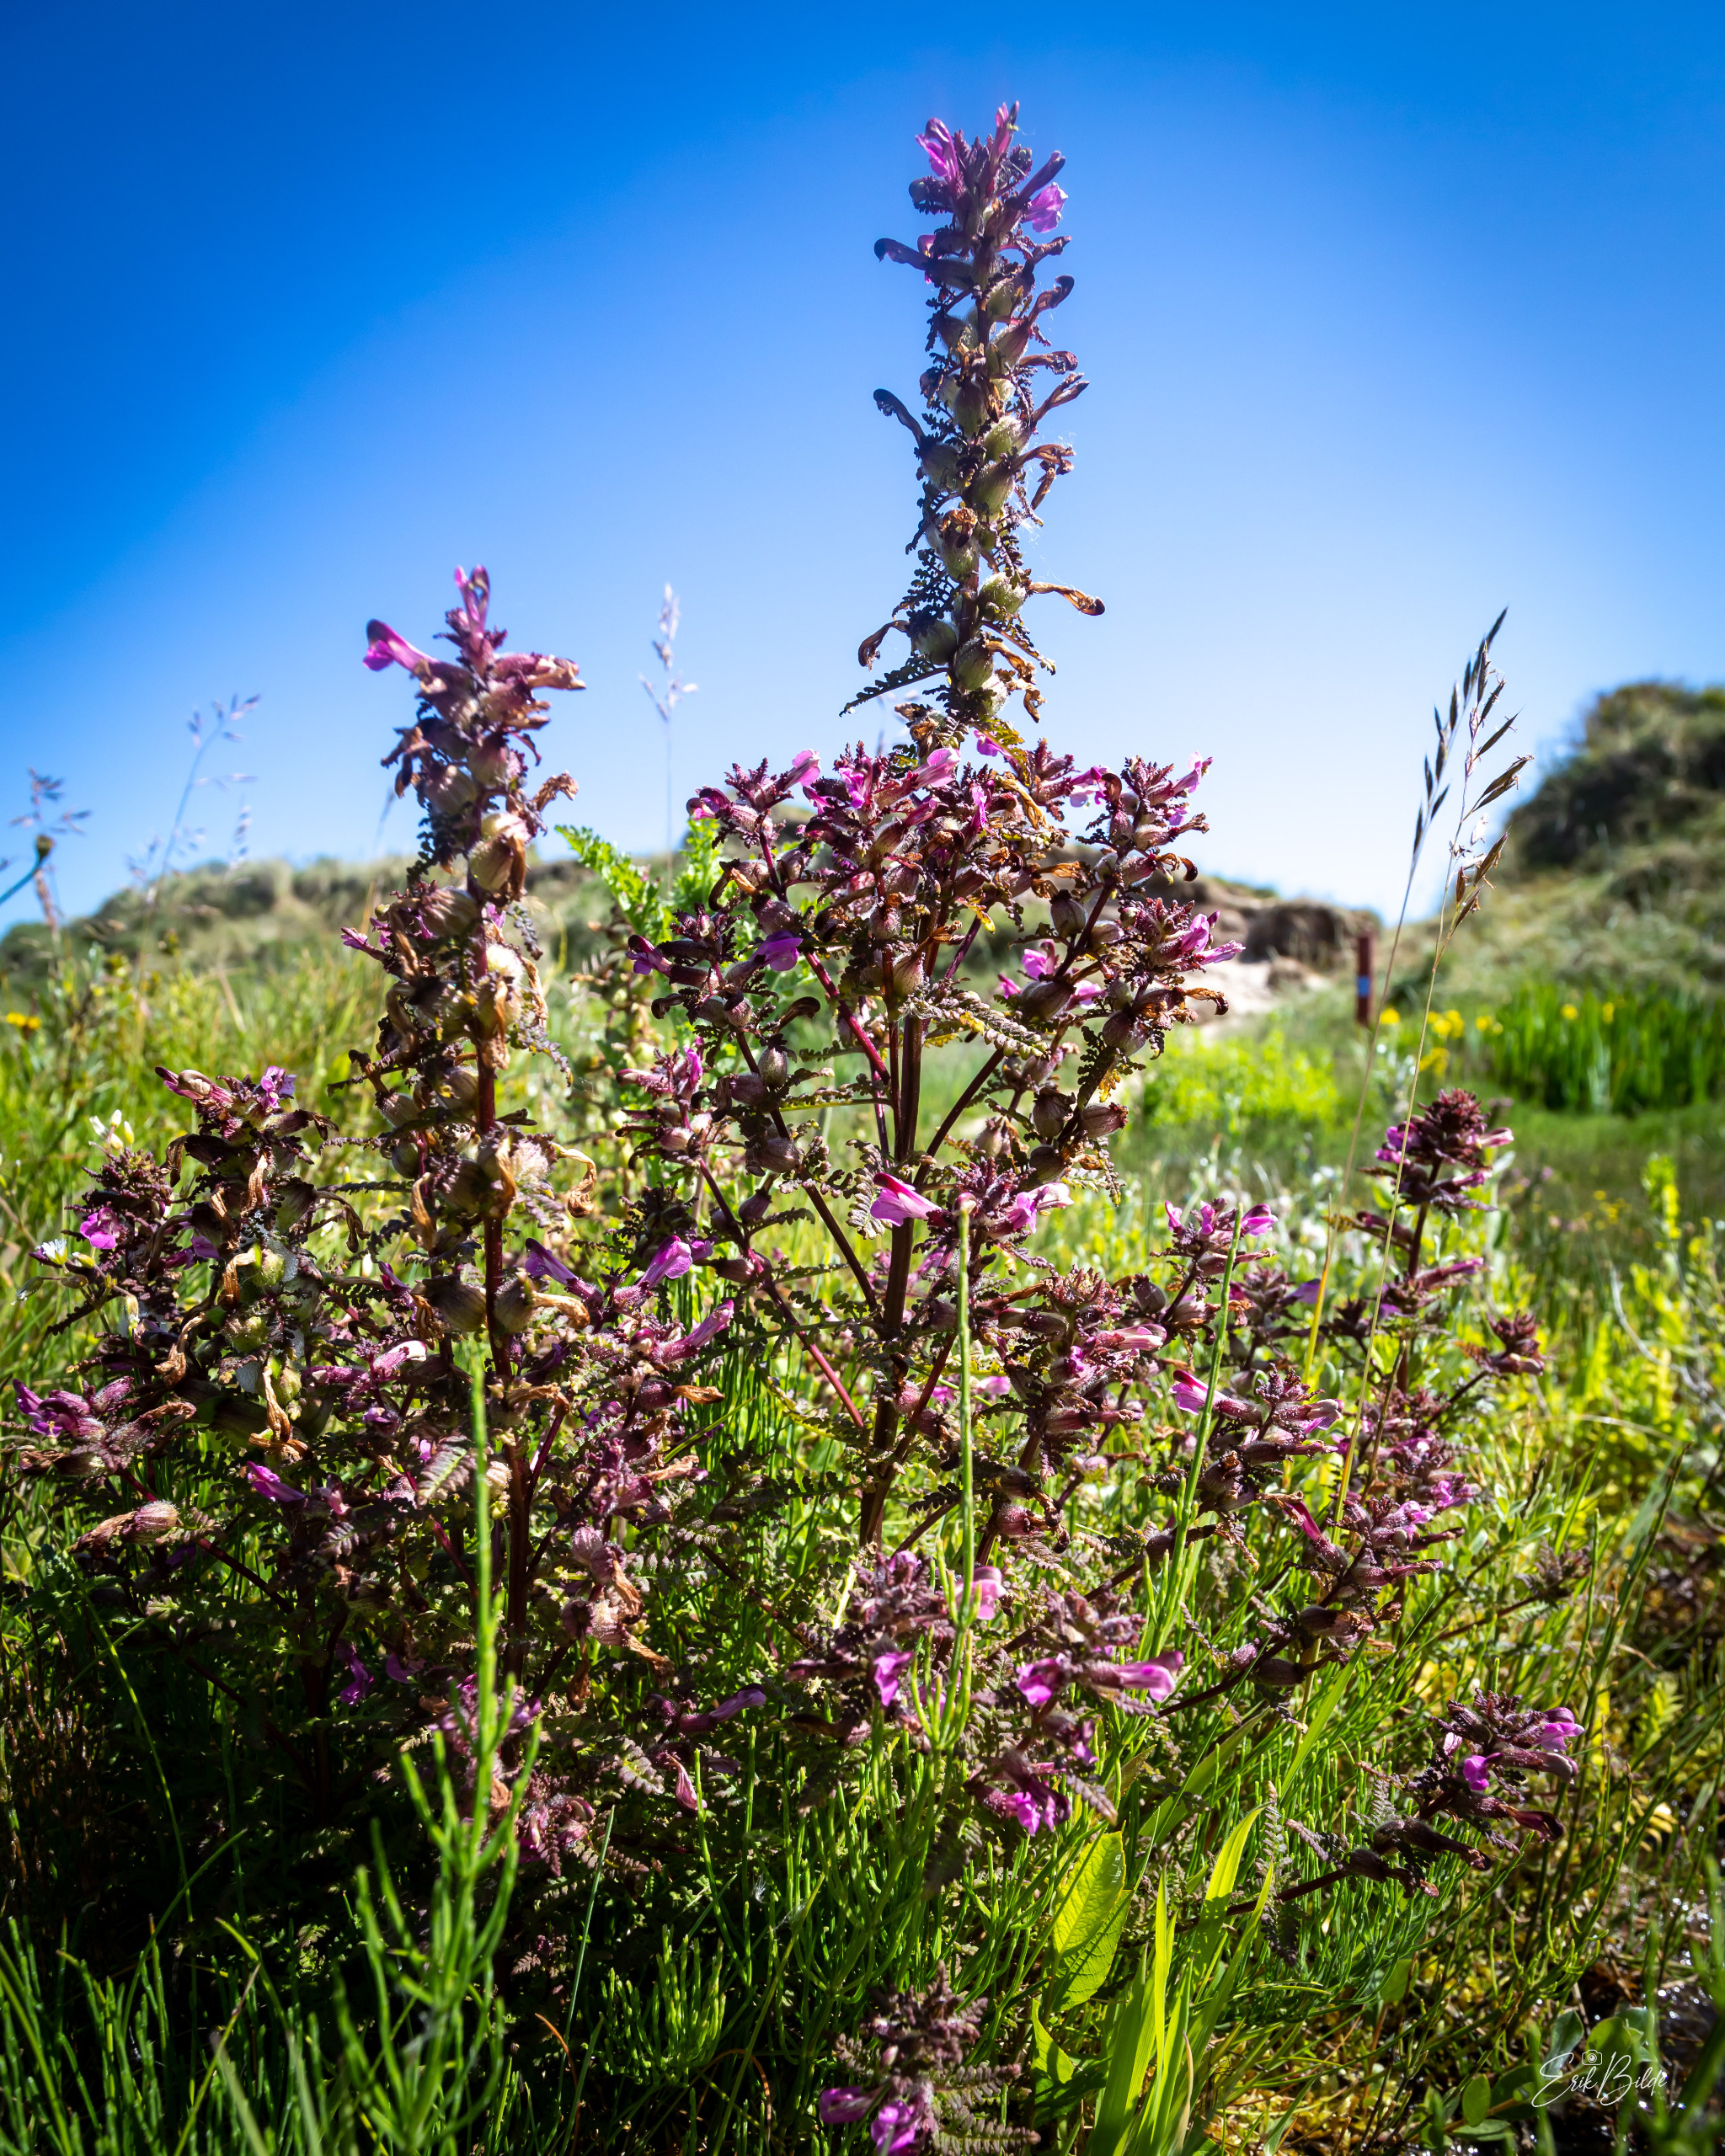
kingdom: Plantae
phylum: Tracheophyta
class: Magnoliopsida
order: Lamiales
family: Orobanchaceae
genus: Pedicularis
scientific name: Pedicularis palustris
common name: Eng-troldurt
